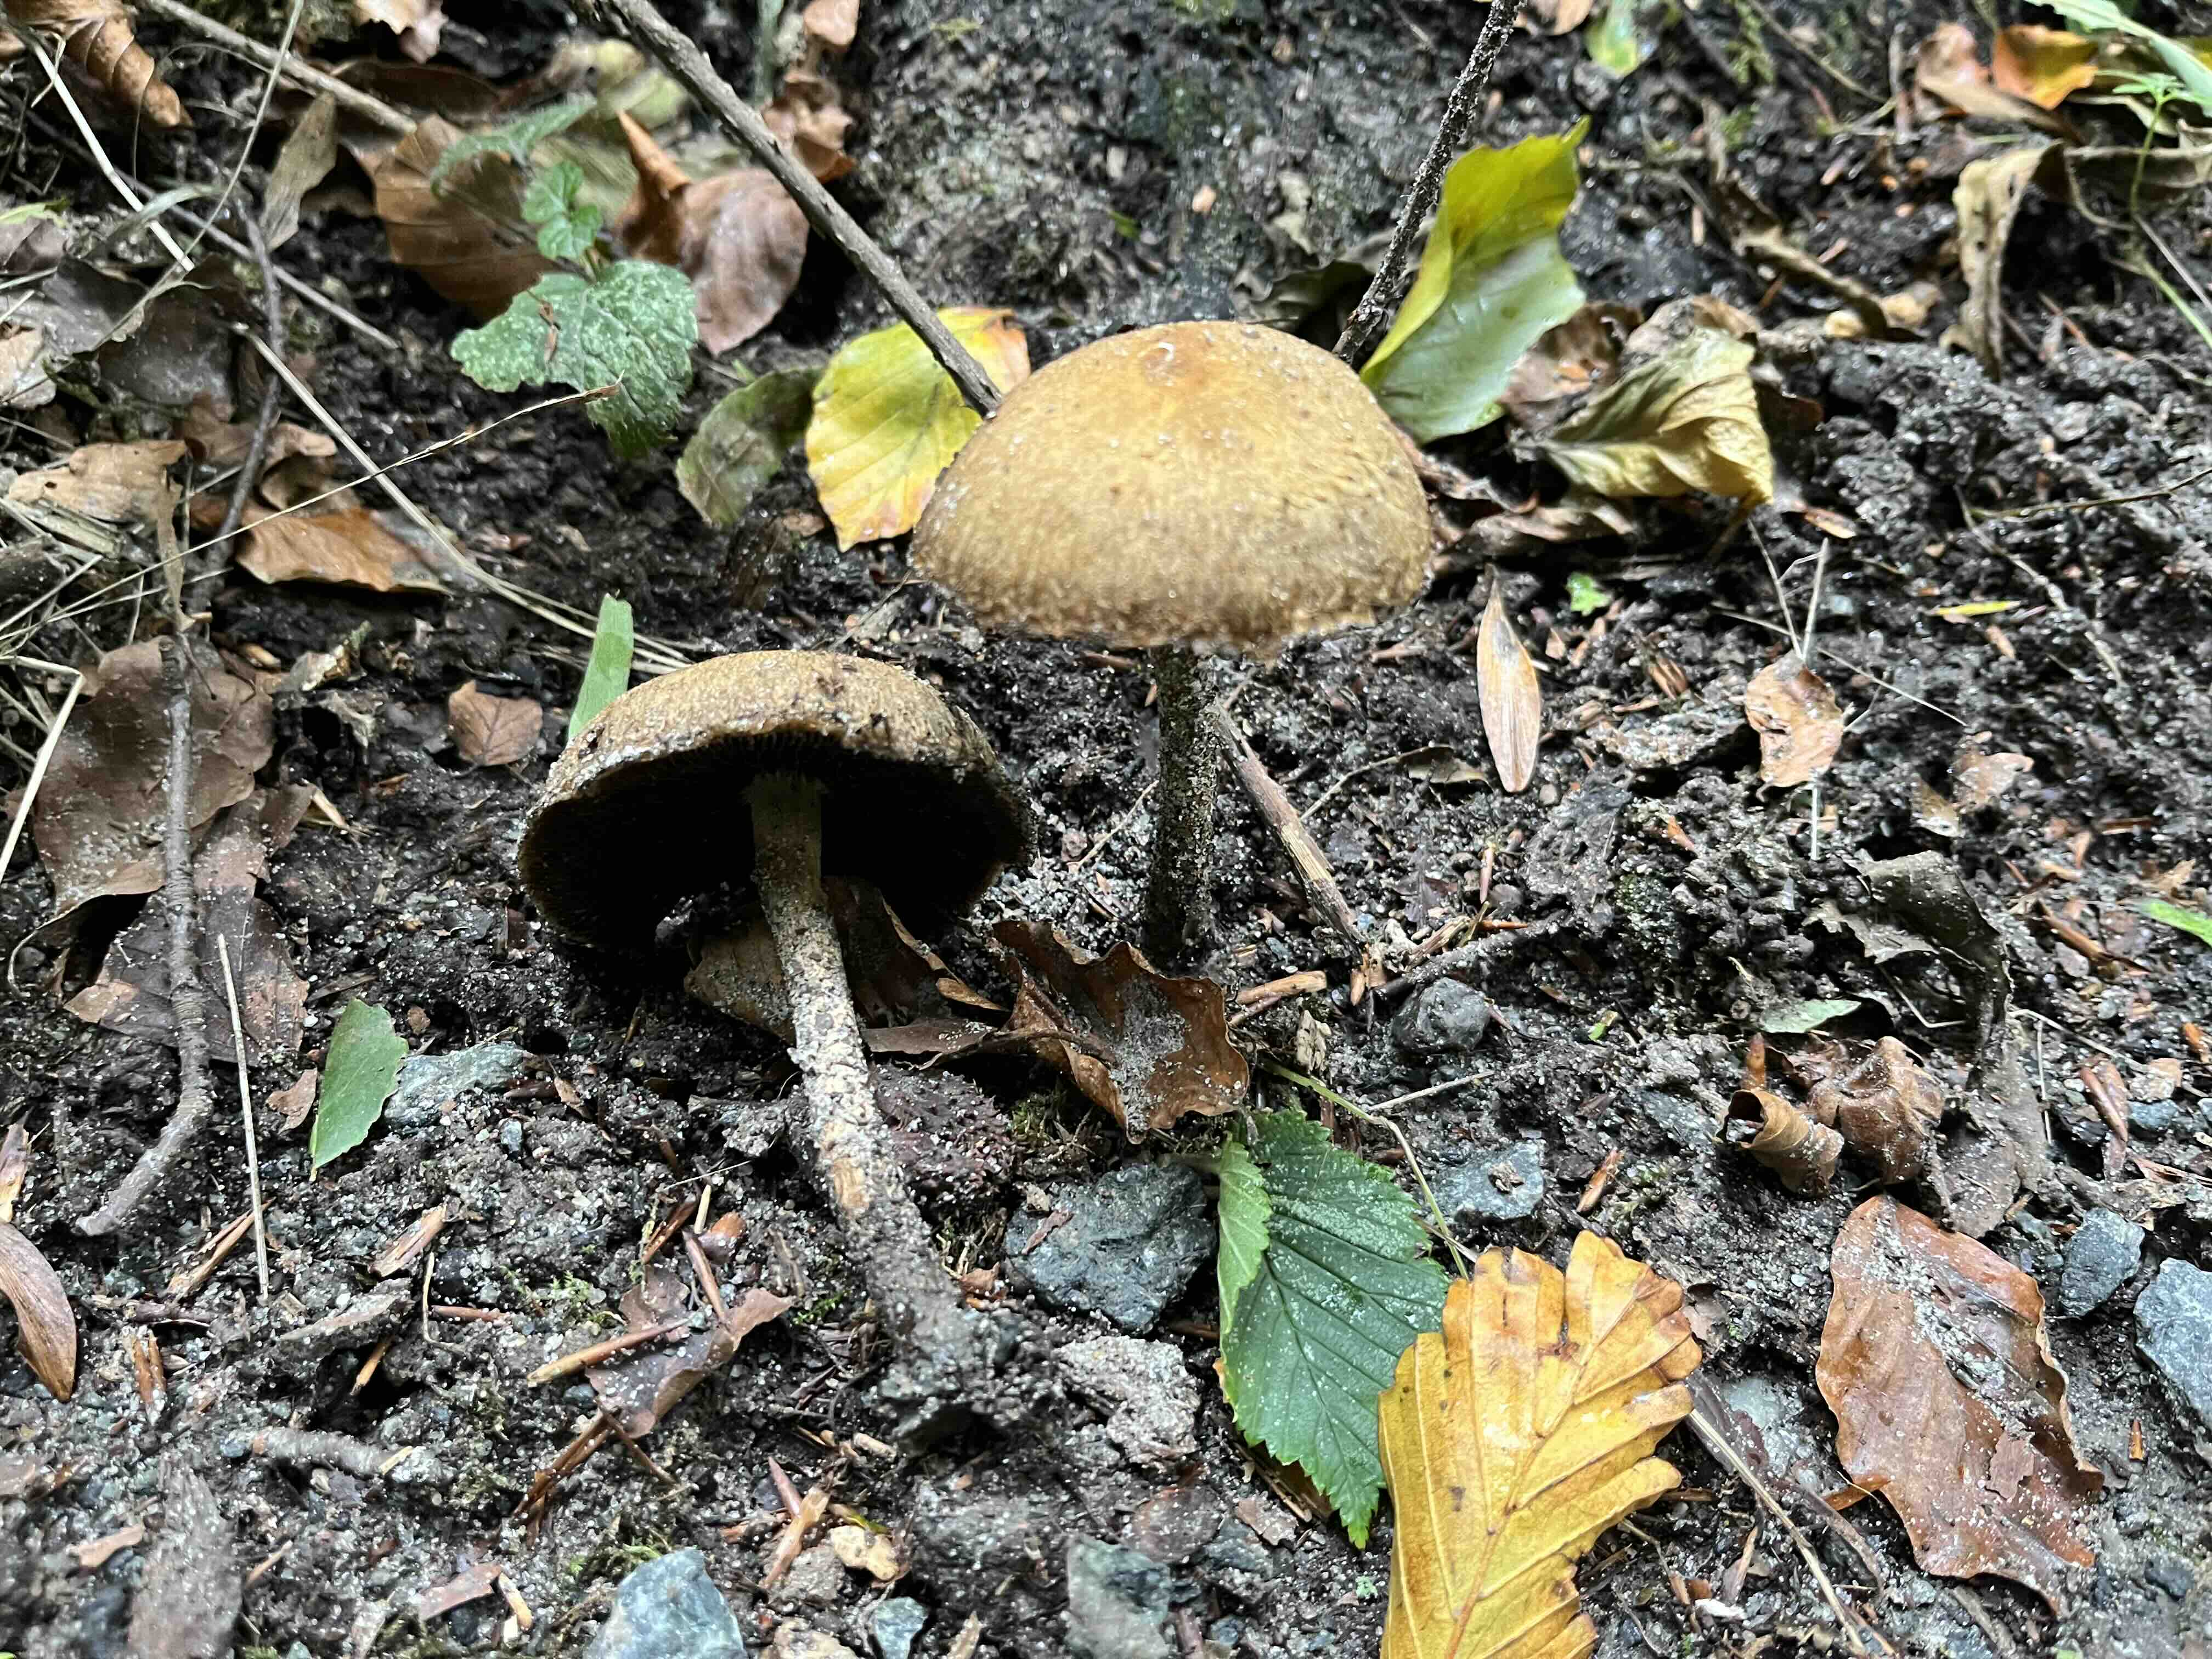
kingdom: Fungi
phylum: Basidiomycota
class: Agaricomycetes
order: Agaricales
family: Psathyrellaceae
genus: Lacrymaria
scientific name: Lacrymaria lacrymabunda
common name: grædende mørkhat
